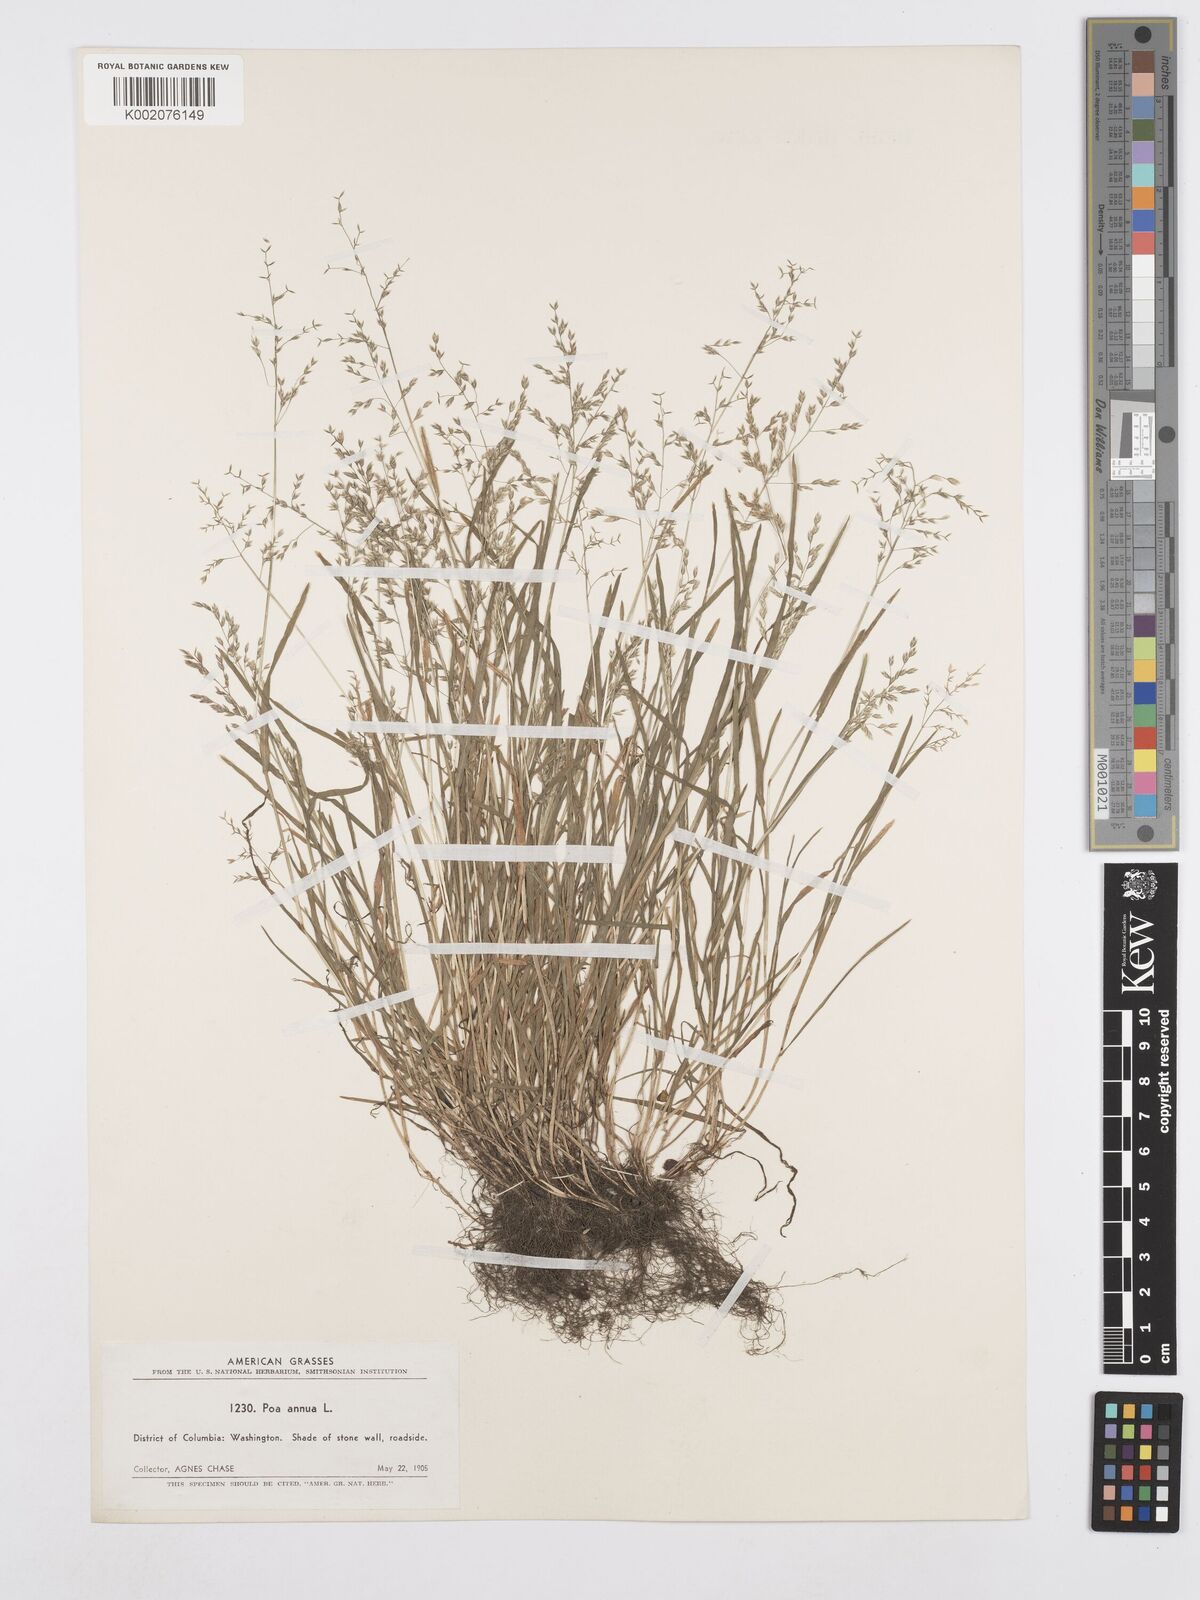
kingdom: Plantae
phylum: Tracheophyta
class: Liliopsida
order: Poales
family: Poaceae
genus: Poa
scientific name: Poa annua
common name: Annual bluegrass
